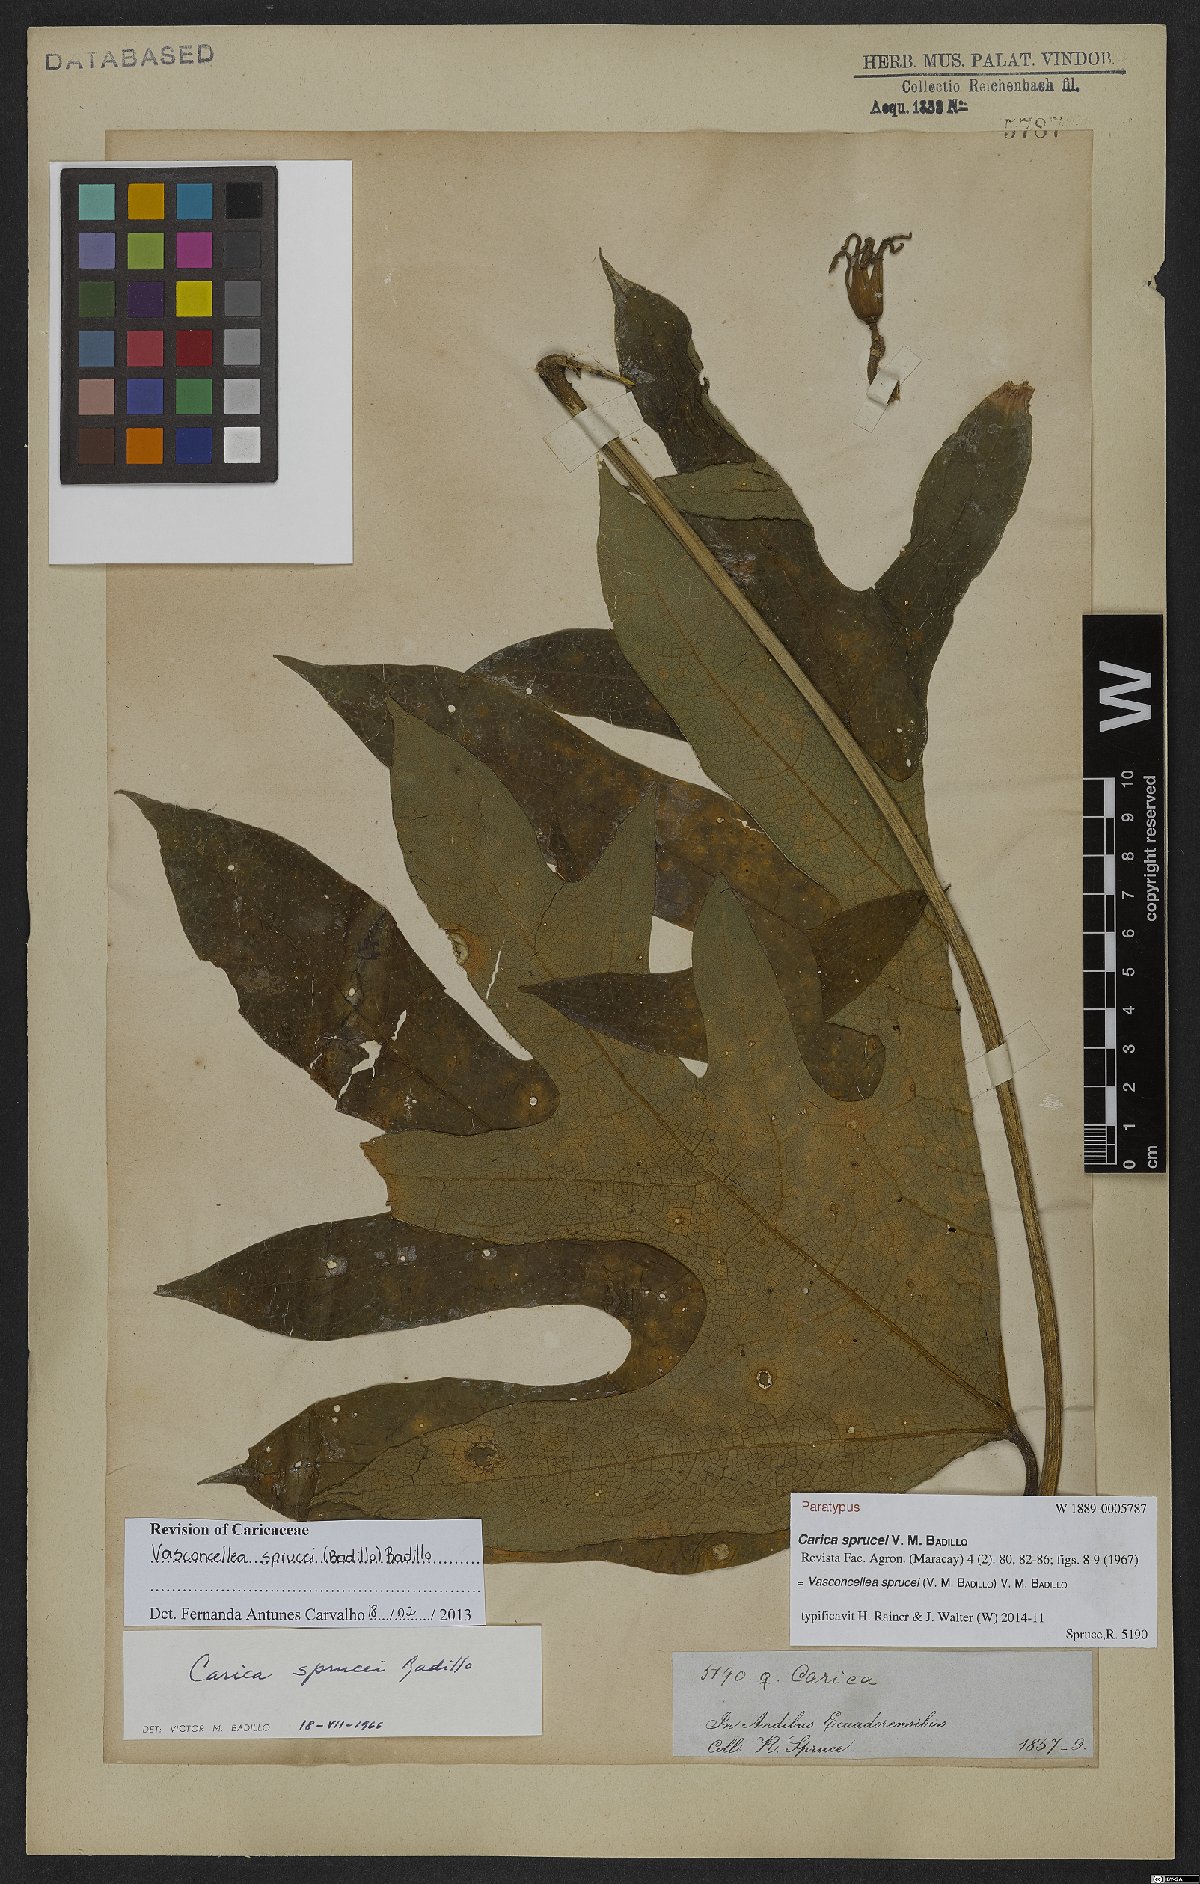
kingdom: Plantae
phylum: Tracheophyta
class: Magnoliopsida
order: Brassicales
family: Caricaceae
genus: Vasconcellea
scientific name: Vasconcellea sprucei
